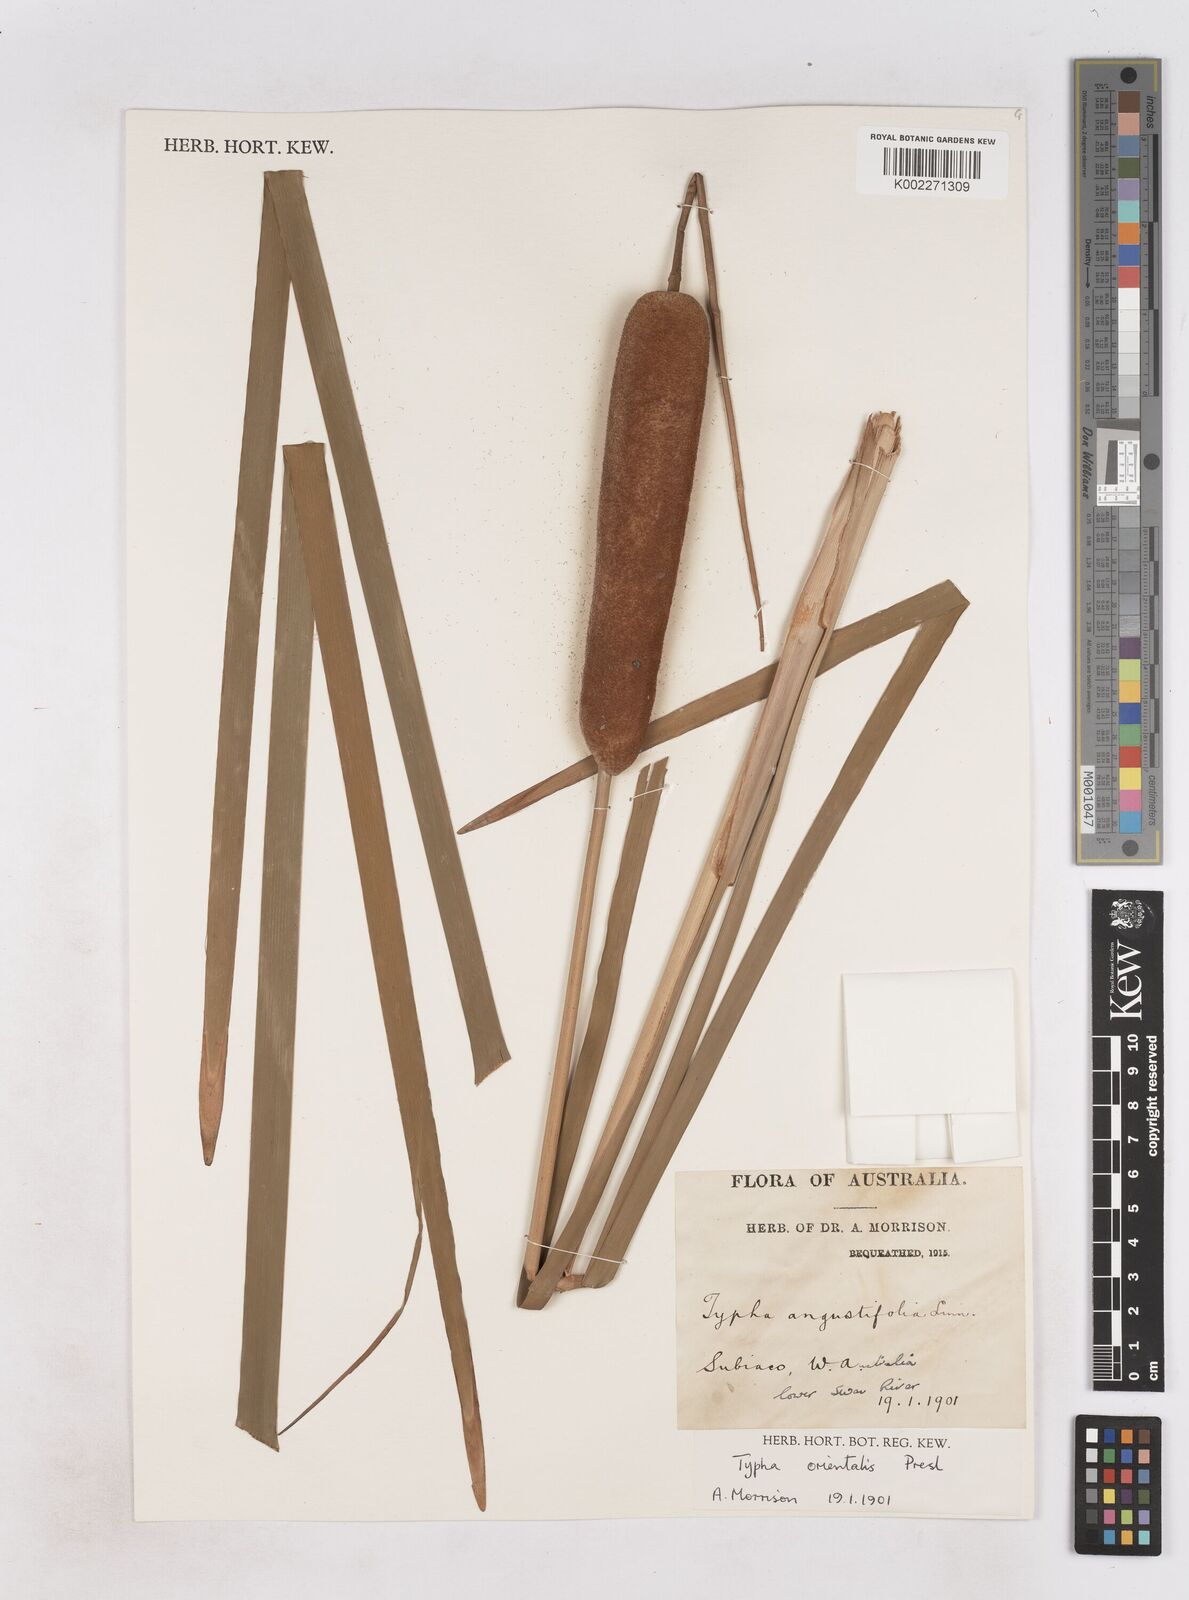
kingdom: Plantae
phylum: Tracheophyta
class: Liliopsida
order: Poales
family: Typhaceae
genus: Typha
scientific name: Typha orientalis
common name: Bullrush
